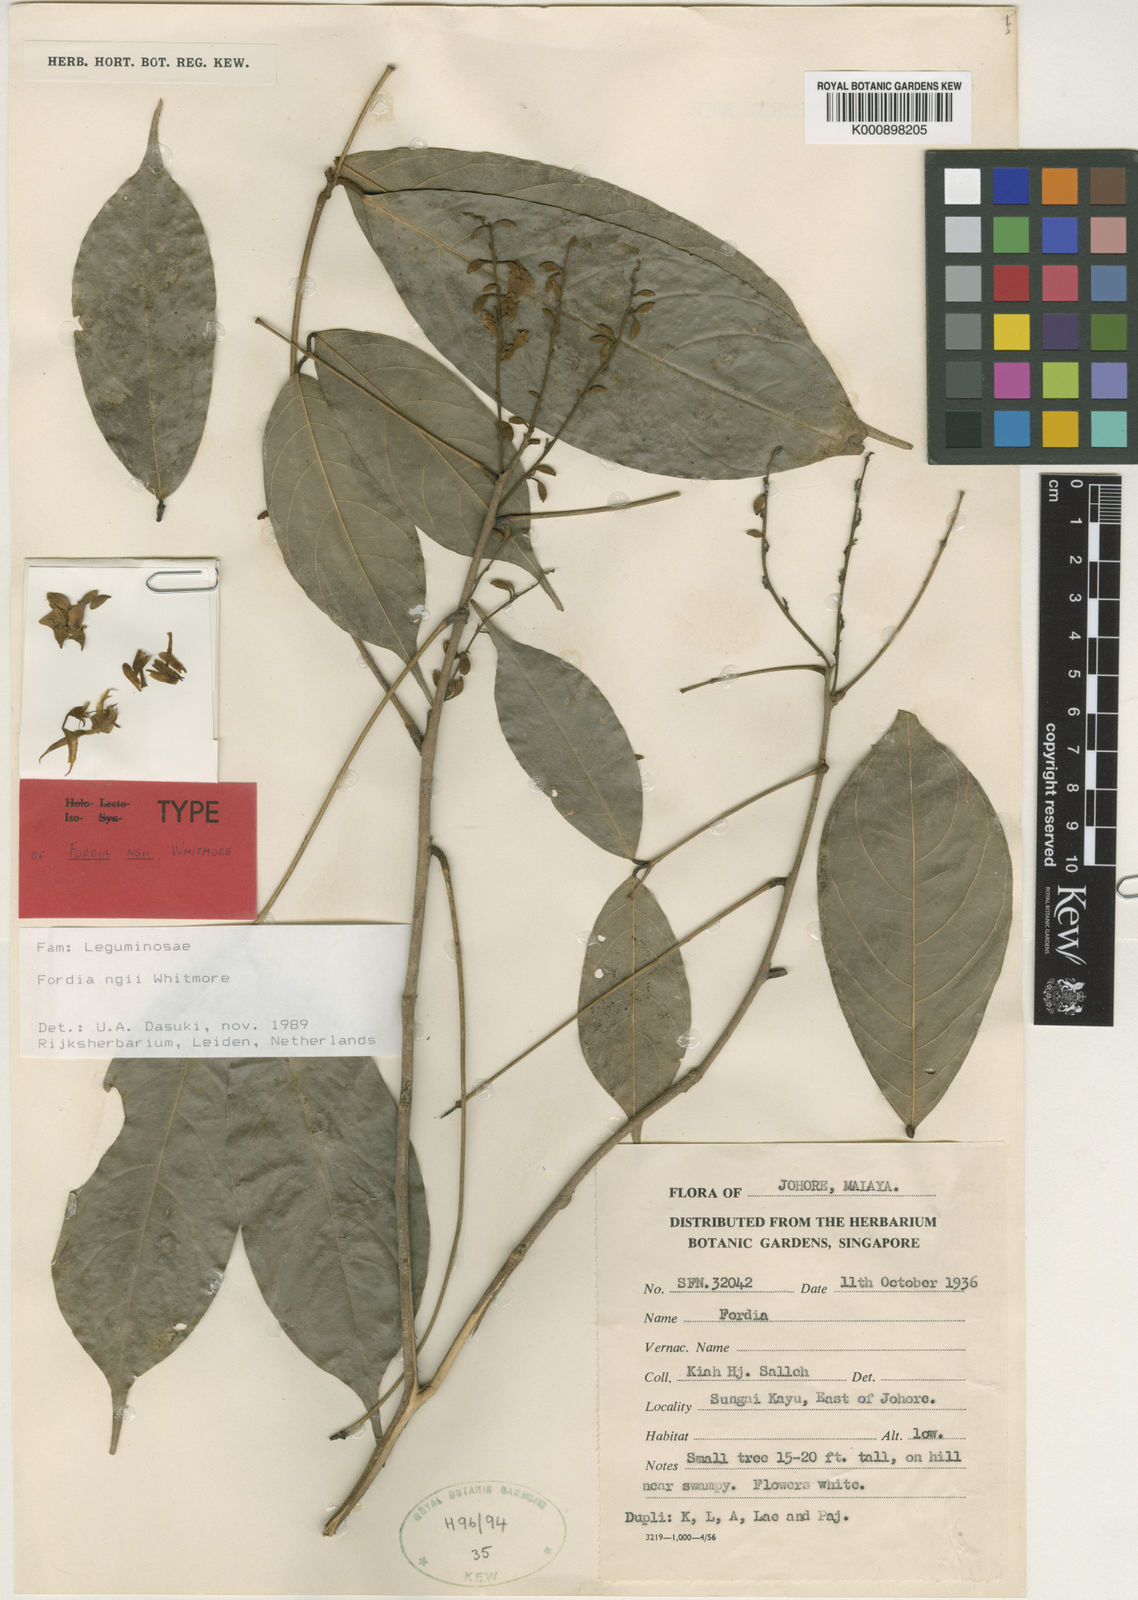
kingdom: Plantae
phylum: Tracheophyta
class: Magnoliopsida
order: Fabales
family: Fabaceae
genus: Imbralyx
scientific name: Imbralyx ngii
